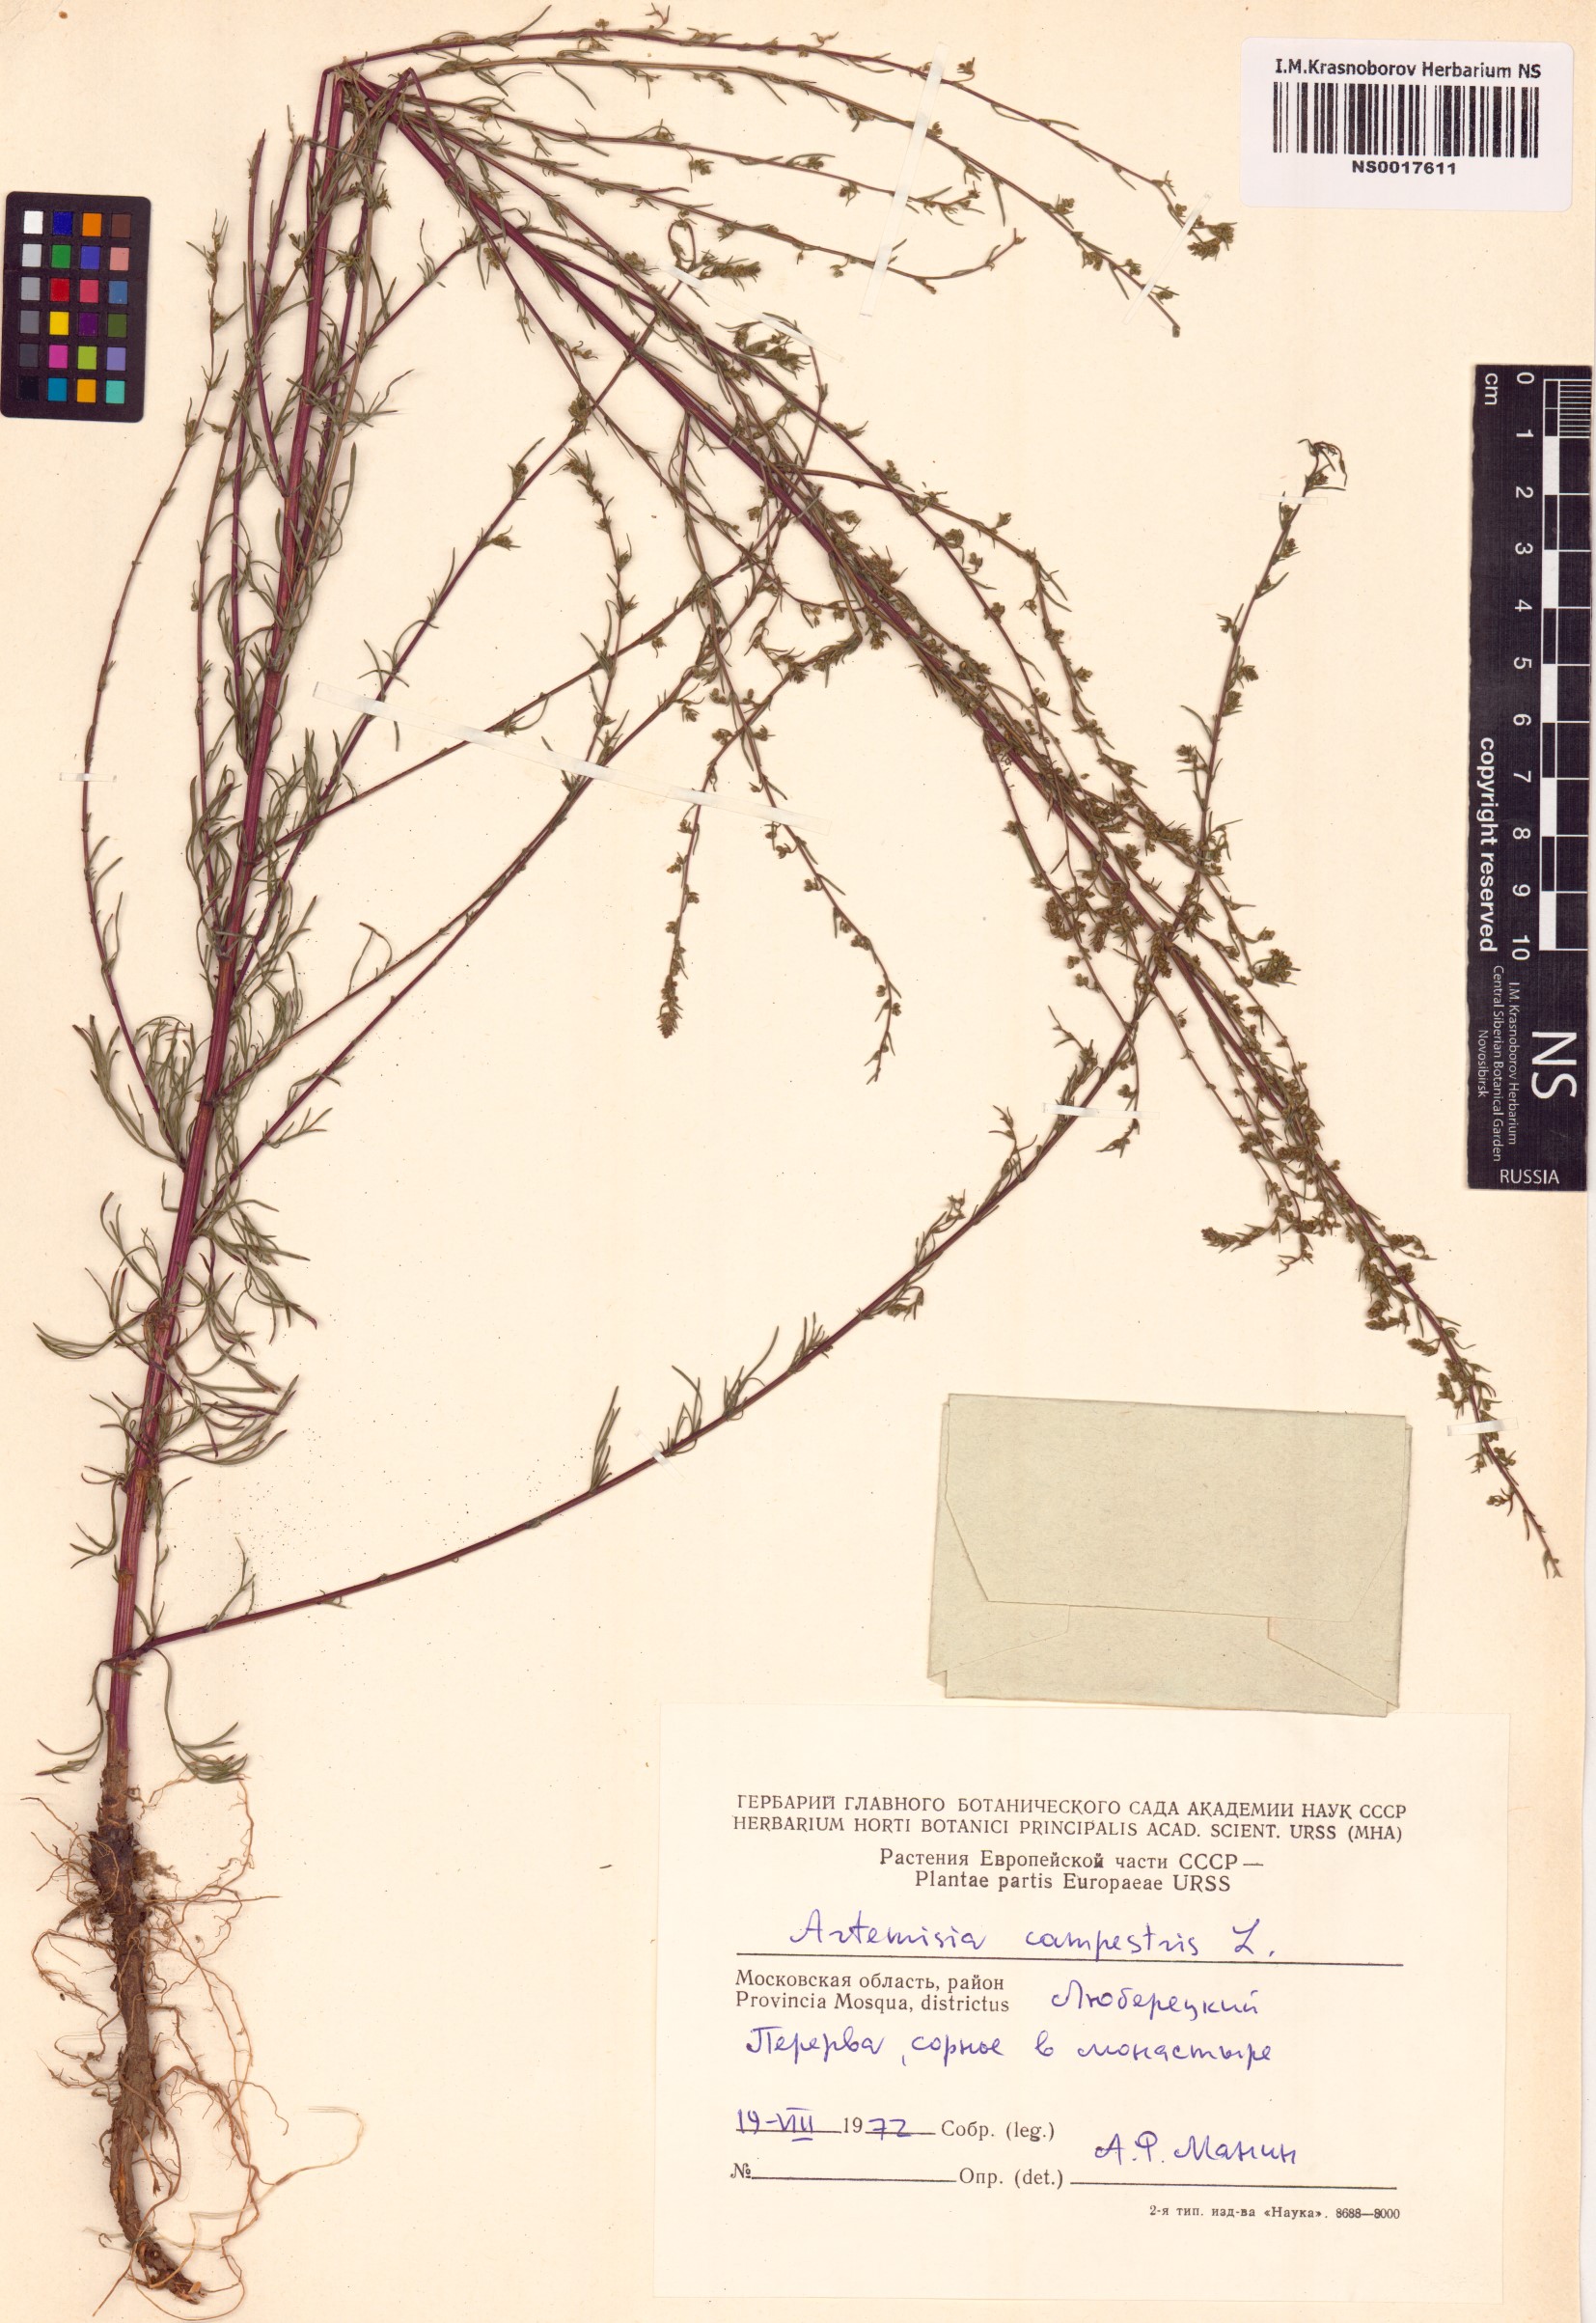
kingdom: Plantae
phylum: Tracheophyta
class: Magnoliopsida
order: Asterales
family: Asteraceae
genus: Artemisia
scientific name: Artemisia campestris
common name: Field wormwood
